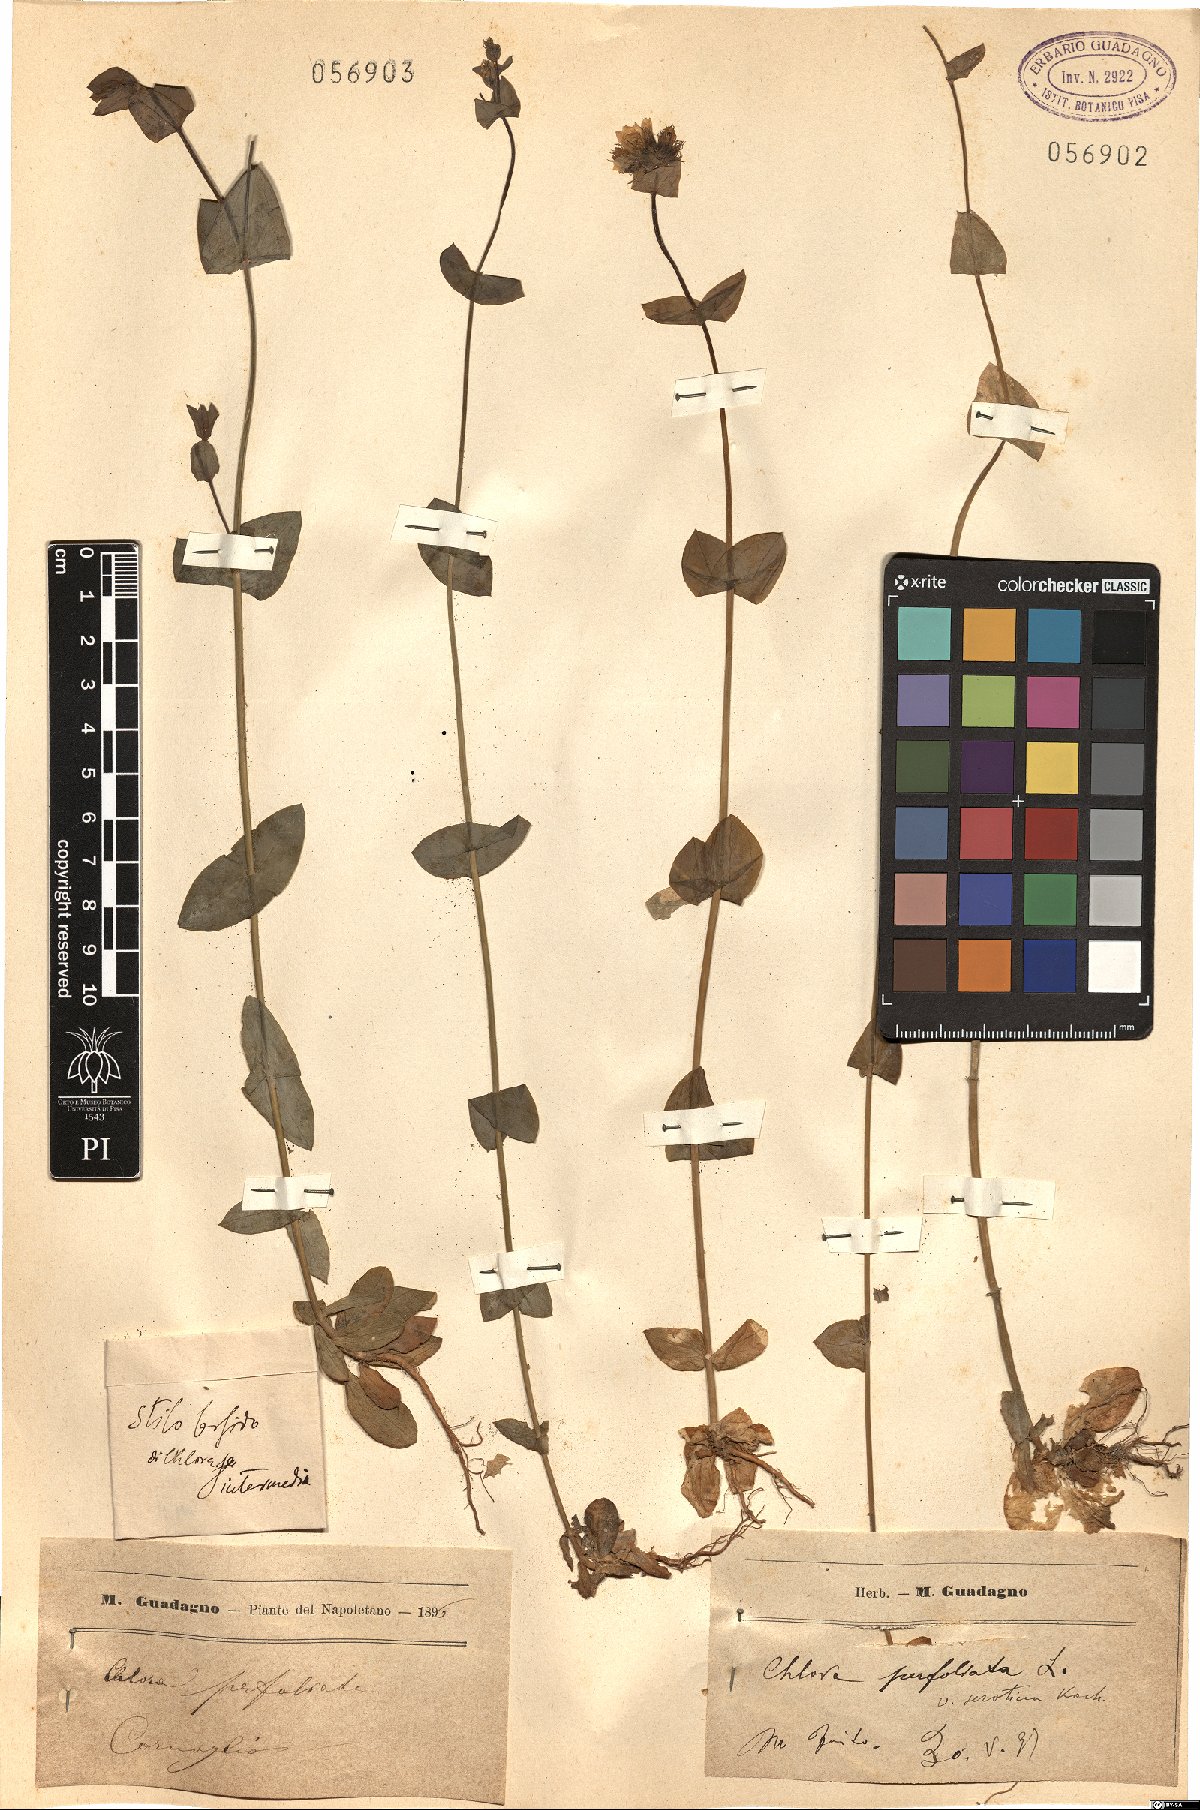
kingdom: Plantae
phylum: Tracheophyta
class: Magnoliopsida
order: Gentianales
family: Gentianaceae
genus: Blackstonia
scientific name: Blackstonia perfoliata
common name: Yellow-wort
